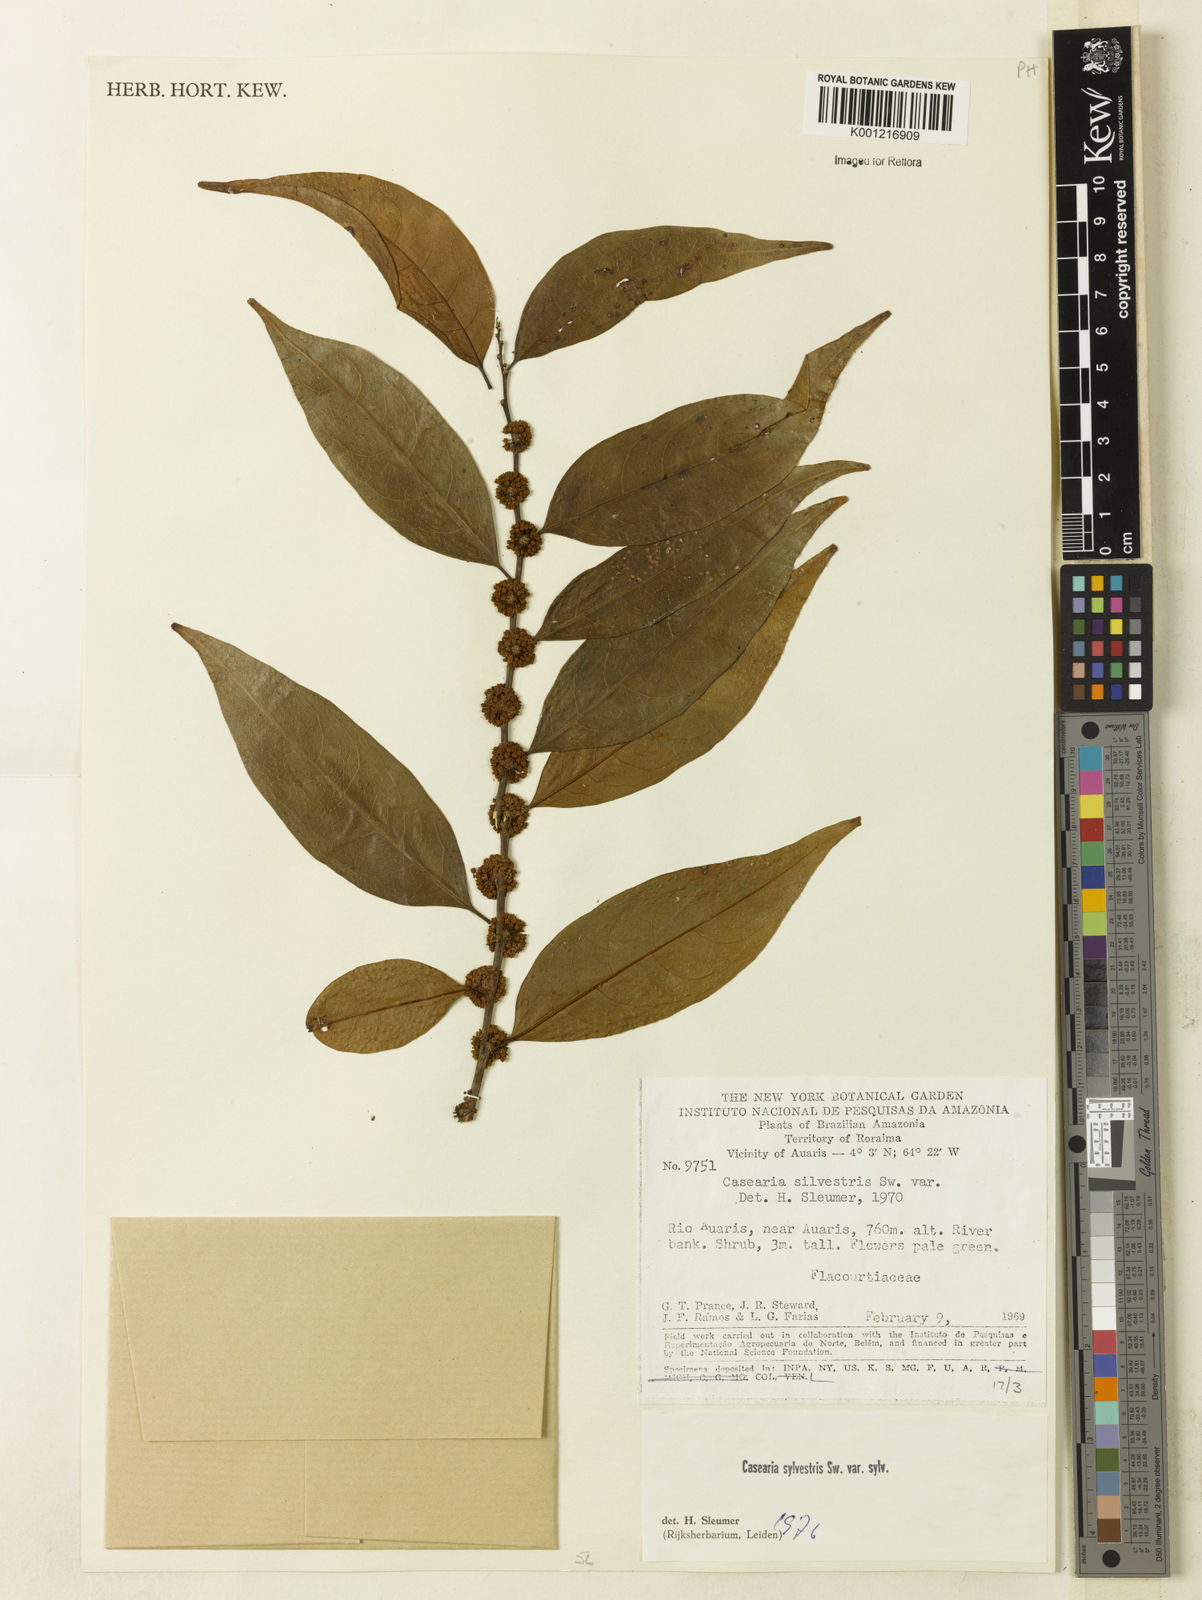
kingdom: Plantae
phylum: Tracheophyta
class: Magnoliopsida
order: Malpighiales
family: Salicaceae
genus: Casearia
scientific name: Casearia sylvestris
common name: Wild sage
